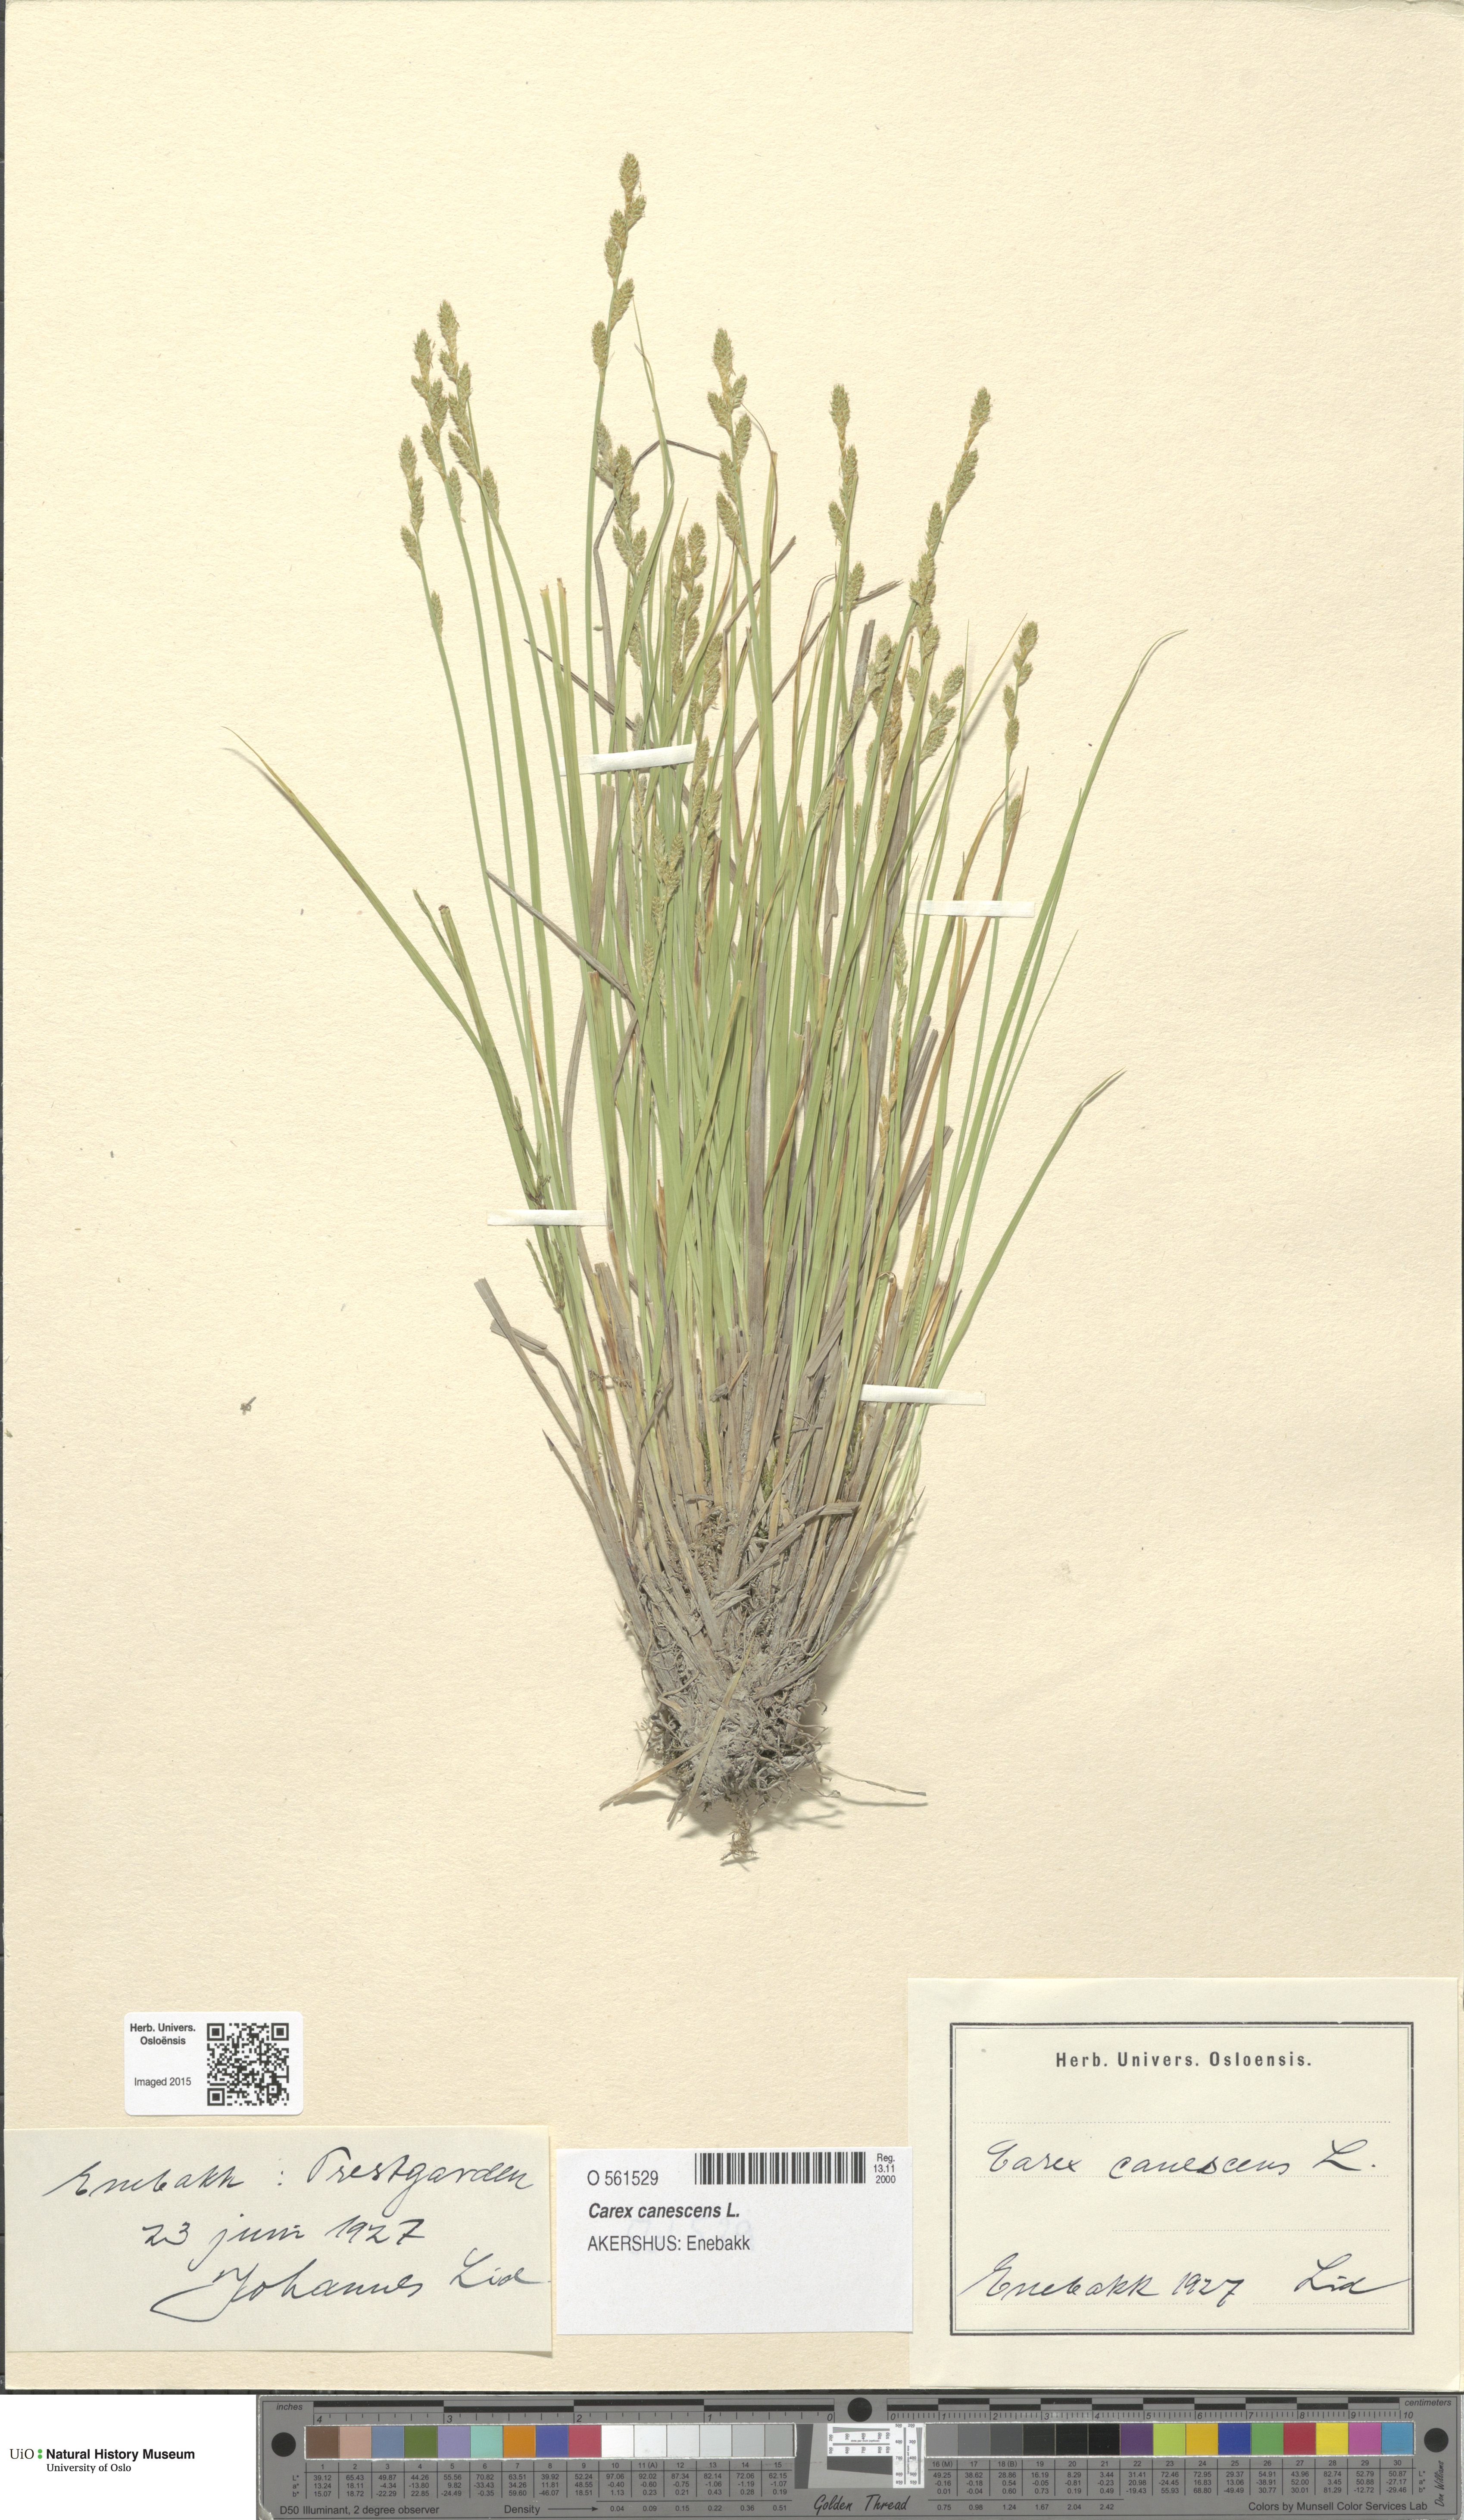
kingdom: Plantae
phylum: Tracheophyta
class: Liliopsida
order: Poales
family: Cyperaceae
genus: Carex
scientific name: Carex canescens
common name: White sedge
